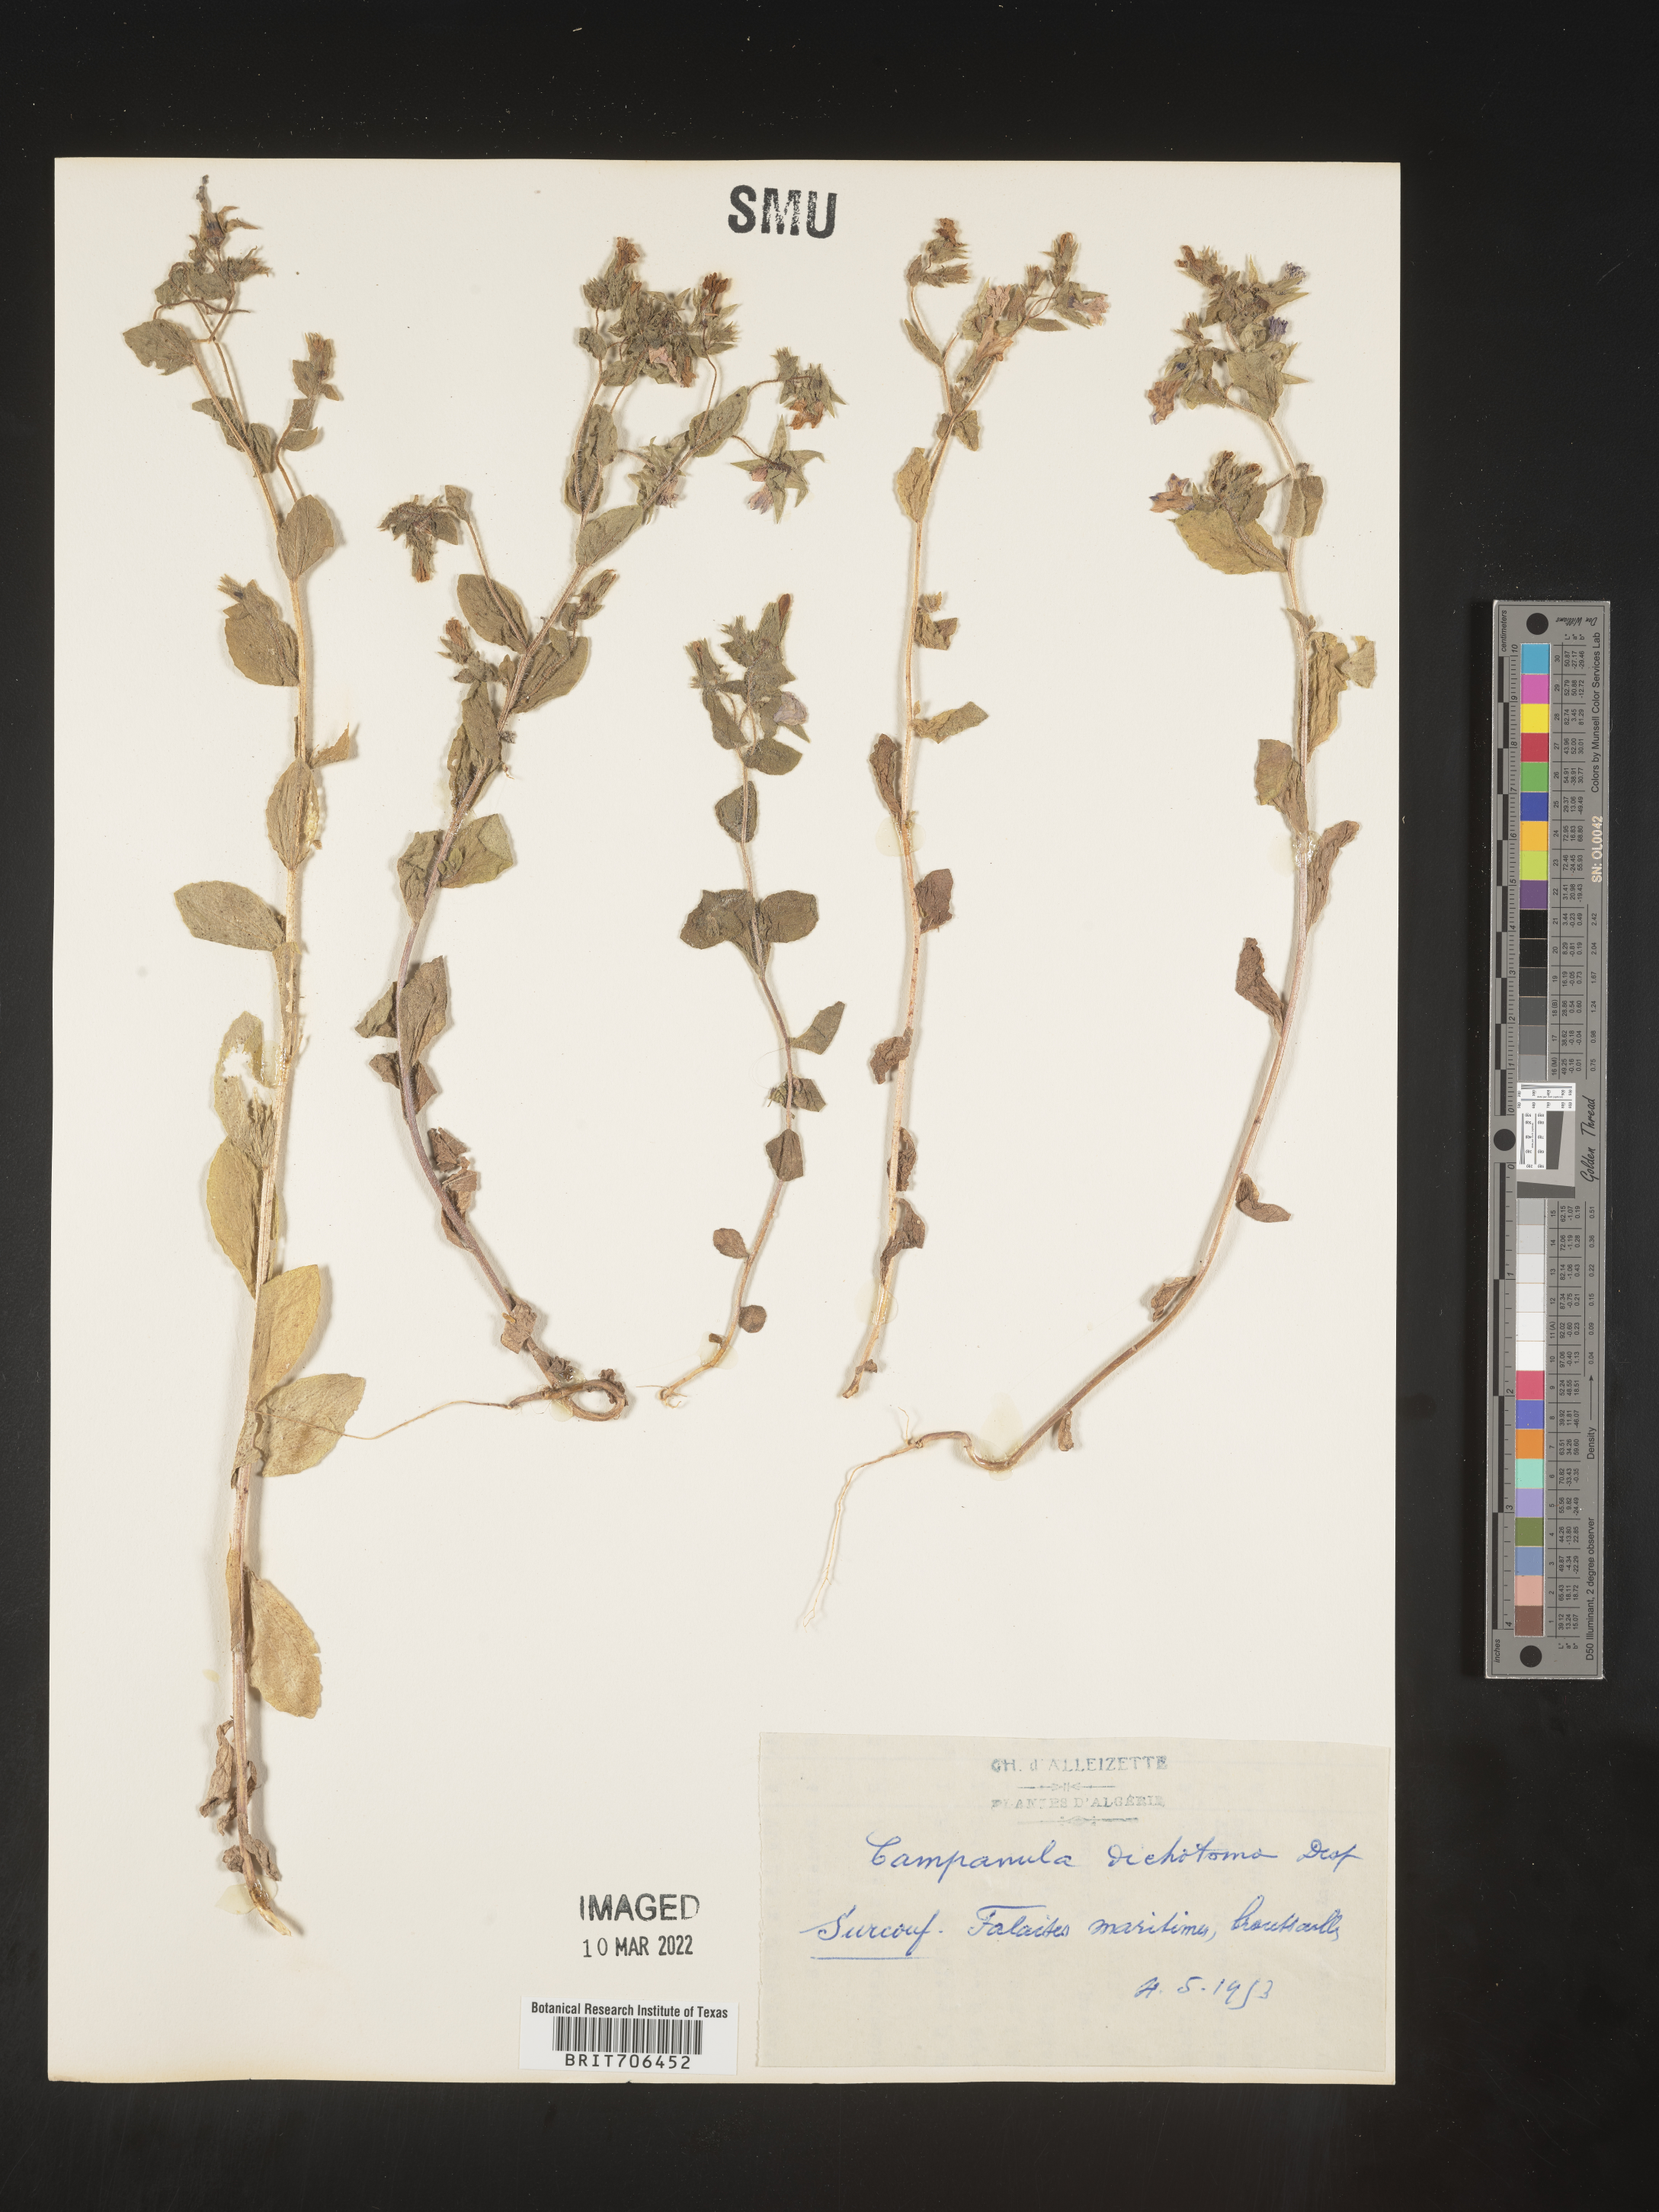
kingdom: Plantae
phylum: Tracheophyta
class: Magnoliopsida
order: Asterales
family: Campanulaceae
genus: Campanula
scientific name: Campanula
